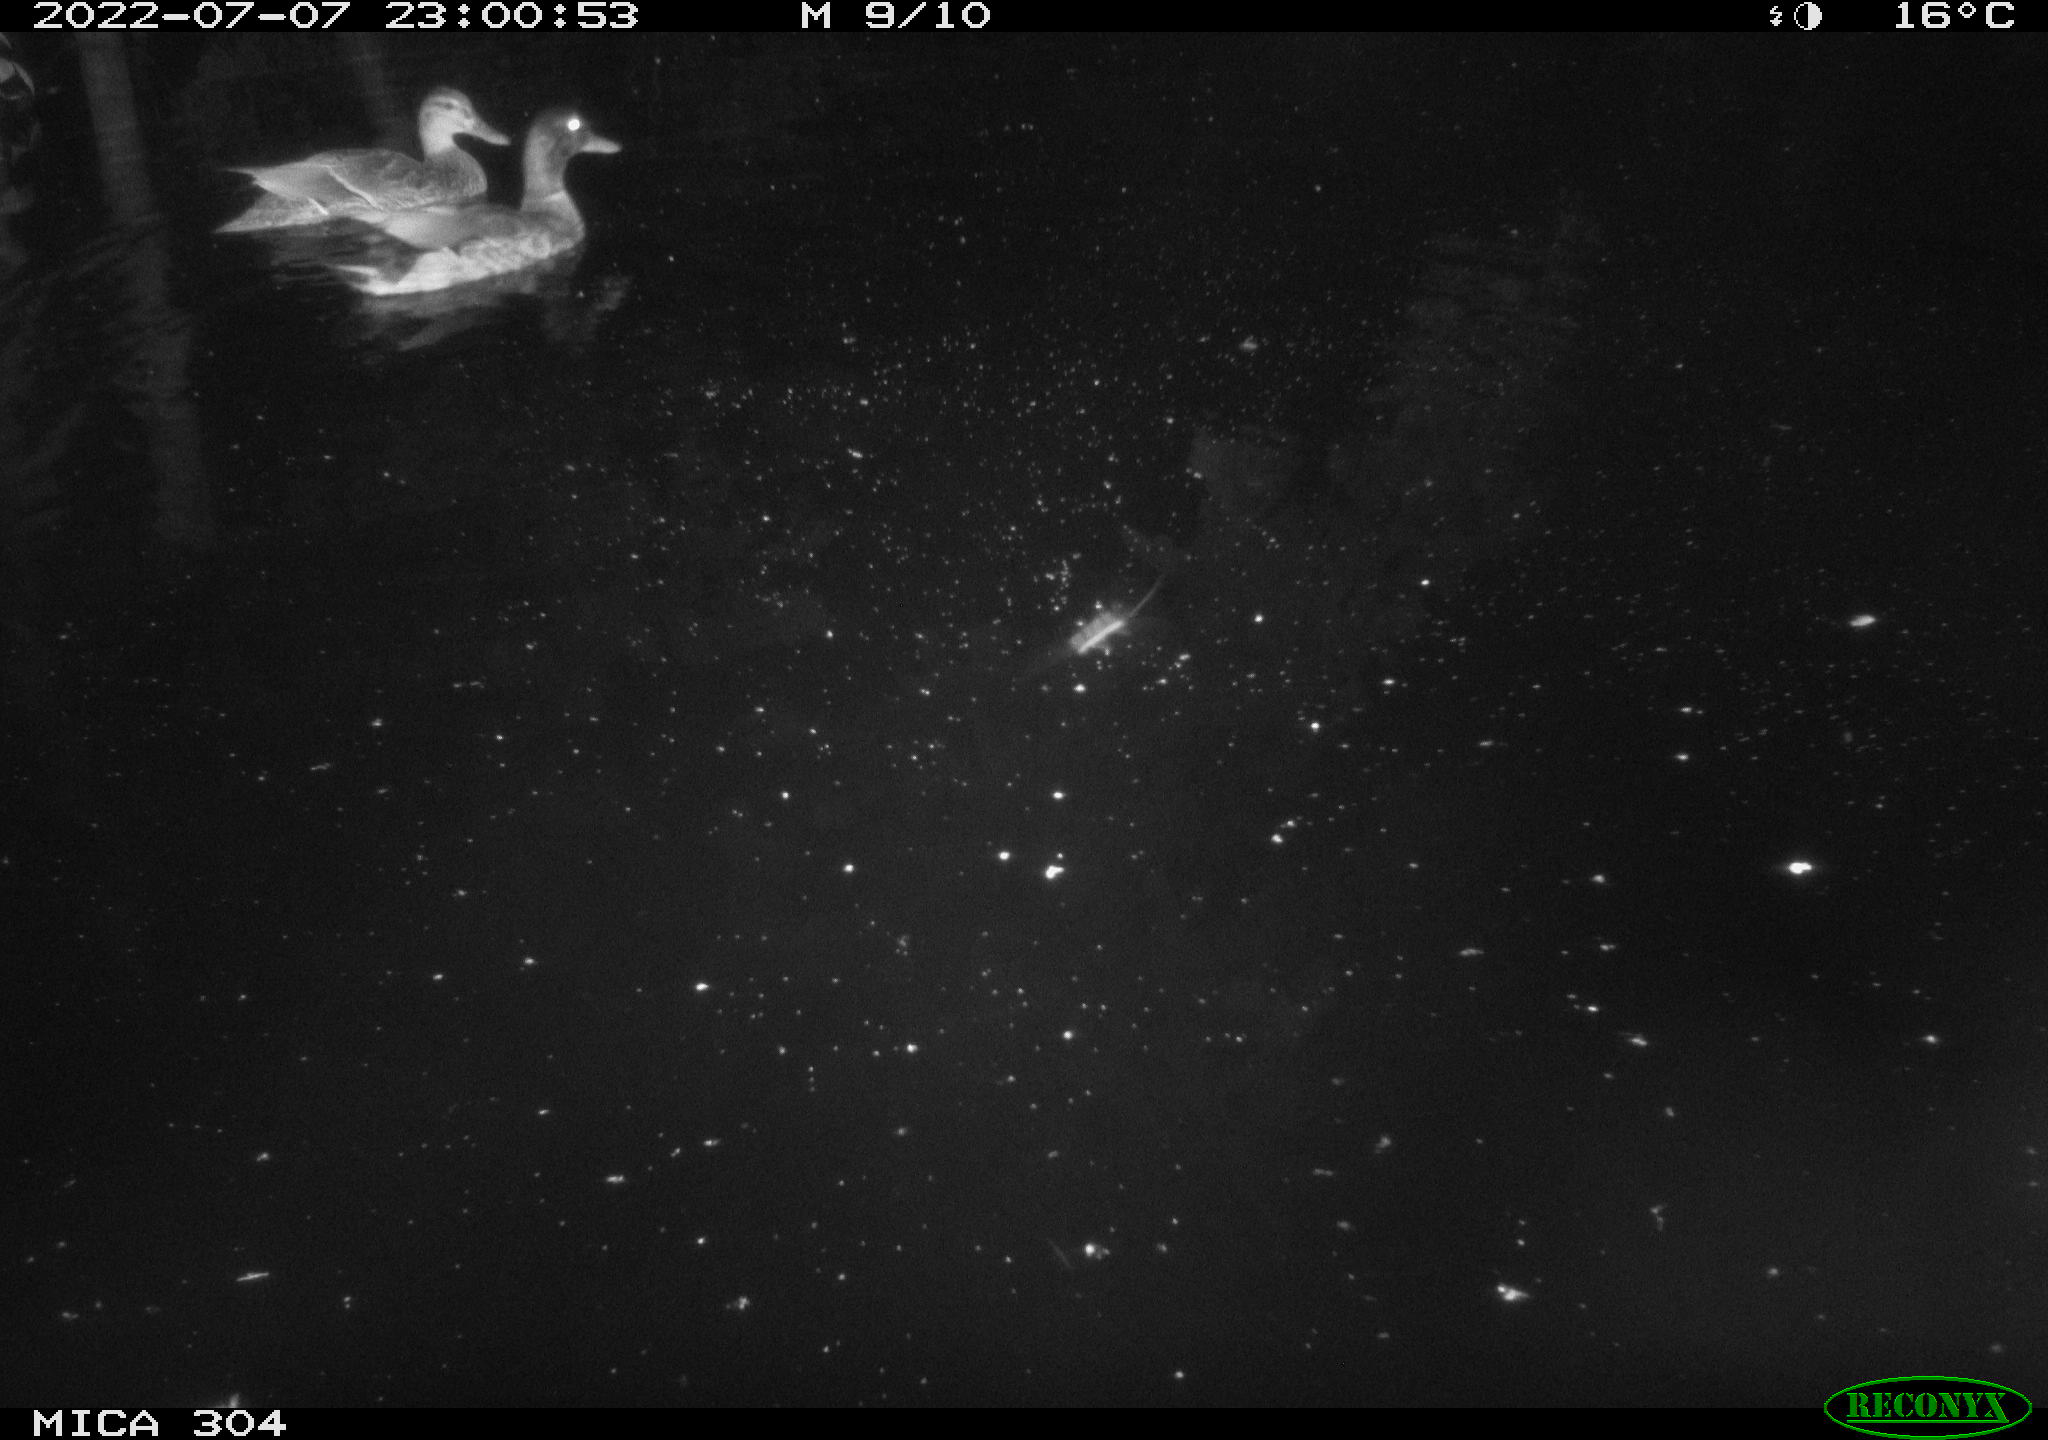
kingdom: Animalia
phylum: Chordata
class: Aves
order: Anseriformes
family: Anatidae
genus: Mareca
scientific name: Mareca strepera
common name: Gadwall
